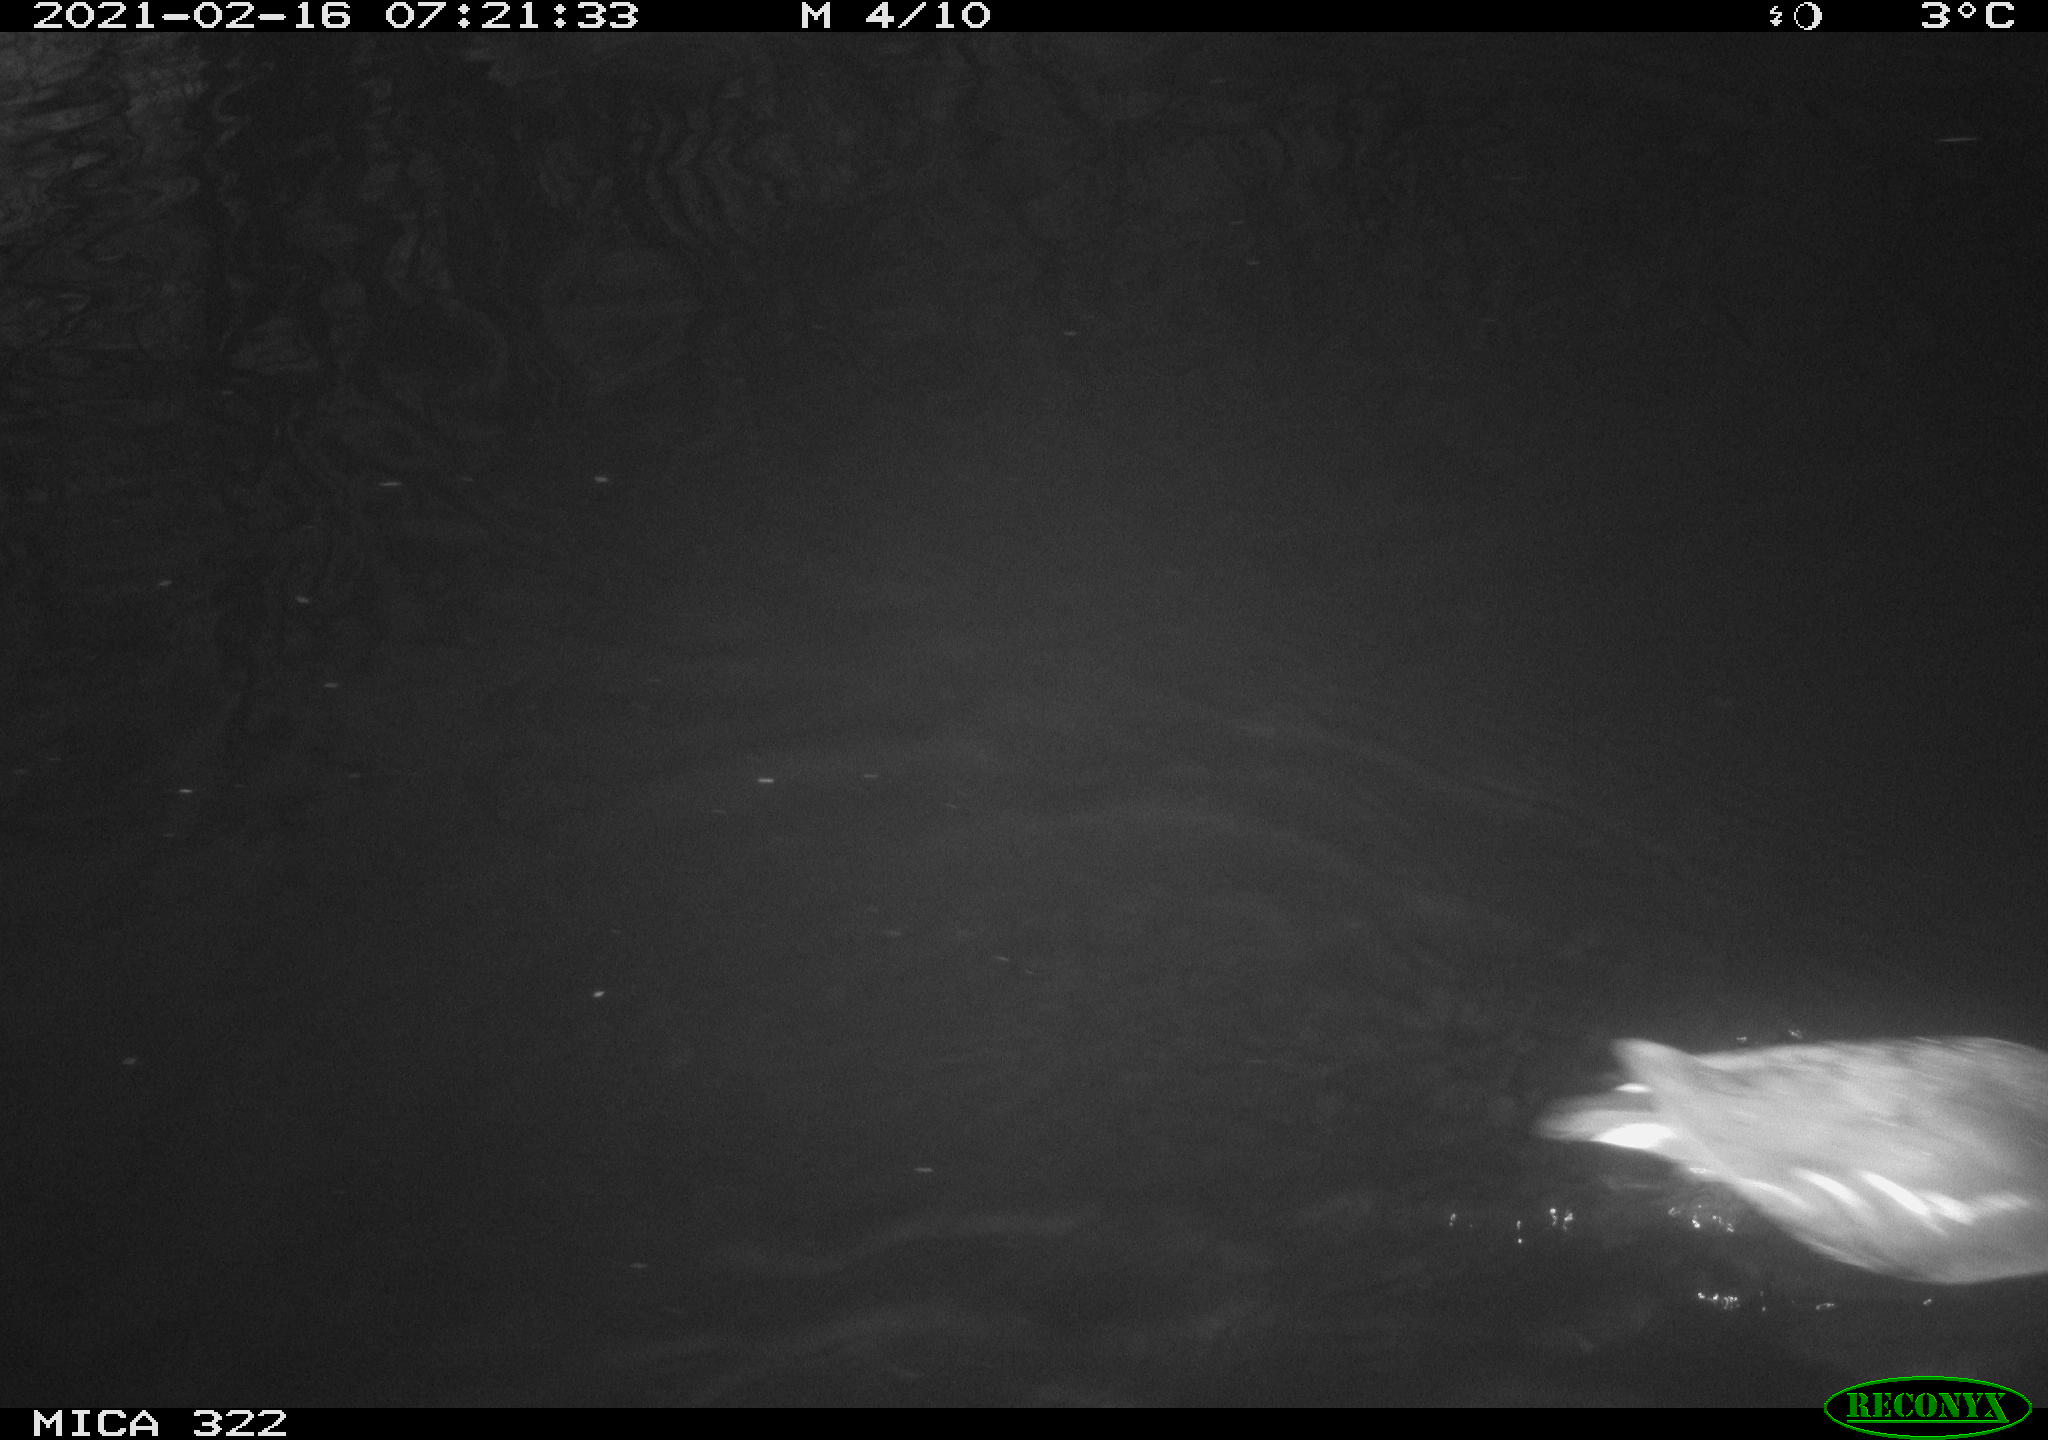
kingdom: Animalia
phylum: Chordata
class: Aves
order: Gruiformes
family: Rallidae
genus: Gallinula
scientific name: Gallinula chloropus
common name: Common moorhen
